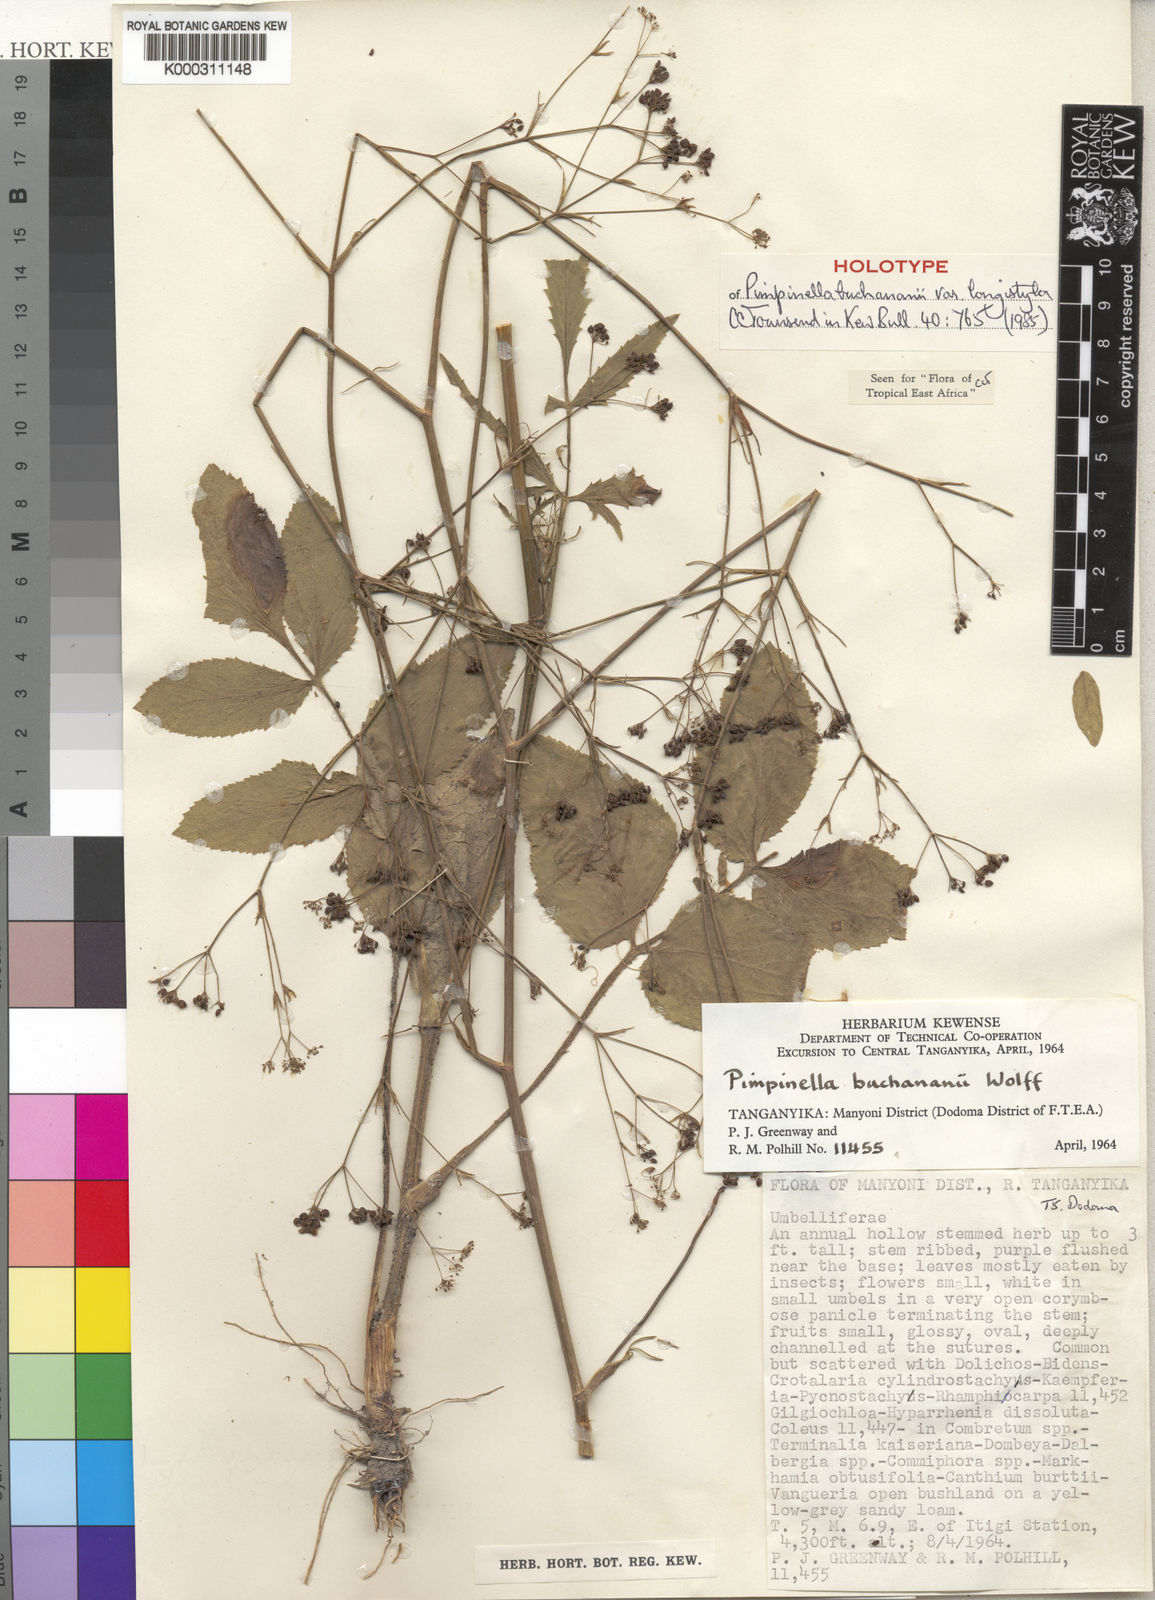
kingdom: Plantae
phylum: Tracheophyta
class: Magnoliopsida
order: Apiales
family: Apiaceae
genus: Pimpinella
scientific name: Pimpinella buchananii
